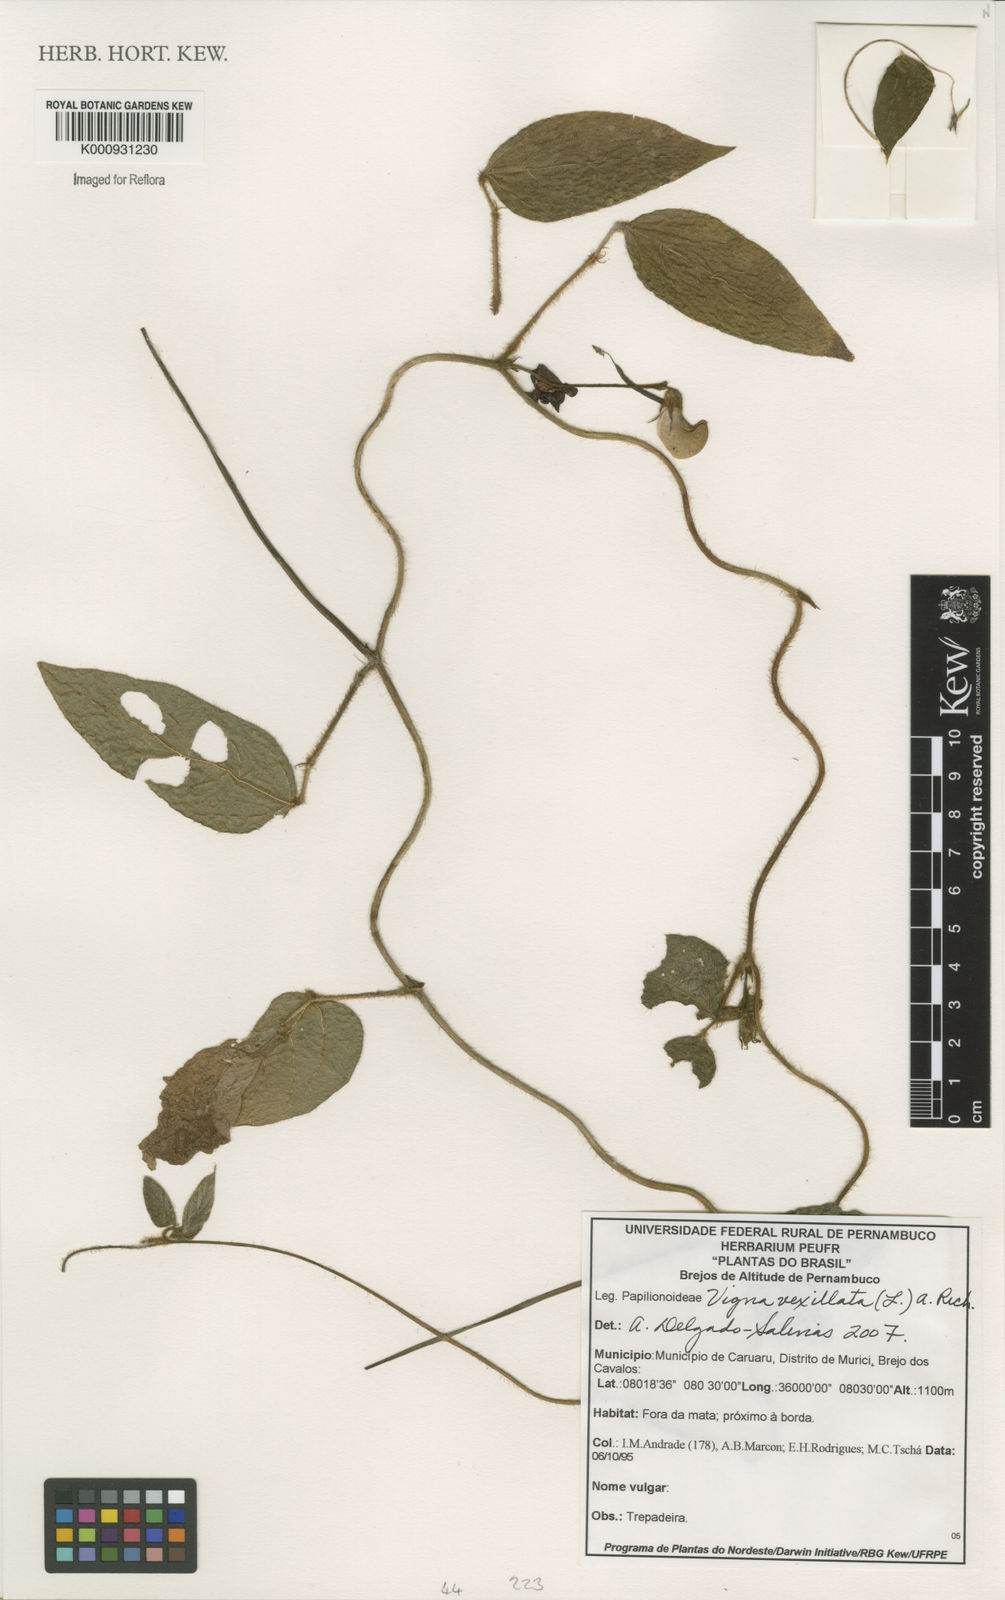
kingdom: Plantae
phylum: Tracheophyta
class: Magnoliopsida
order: Fabales
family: Fabaceae
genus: Vigna
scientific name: Vigna vexillata
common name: Zombi pea
